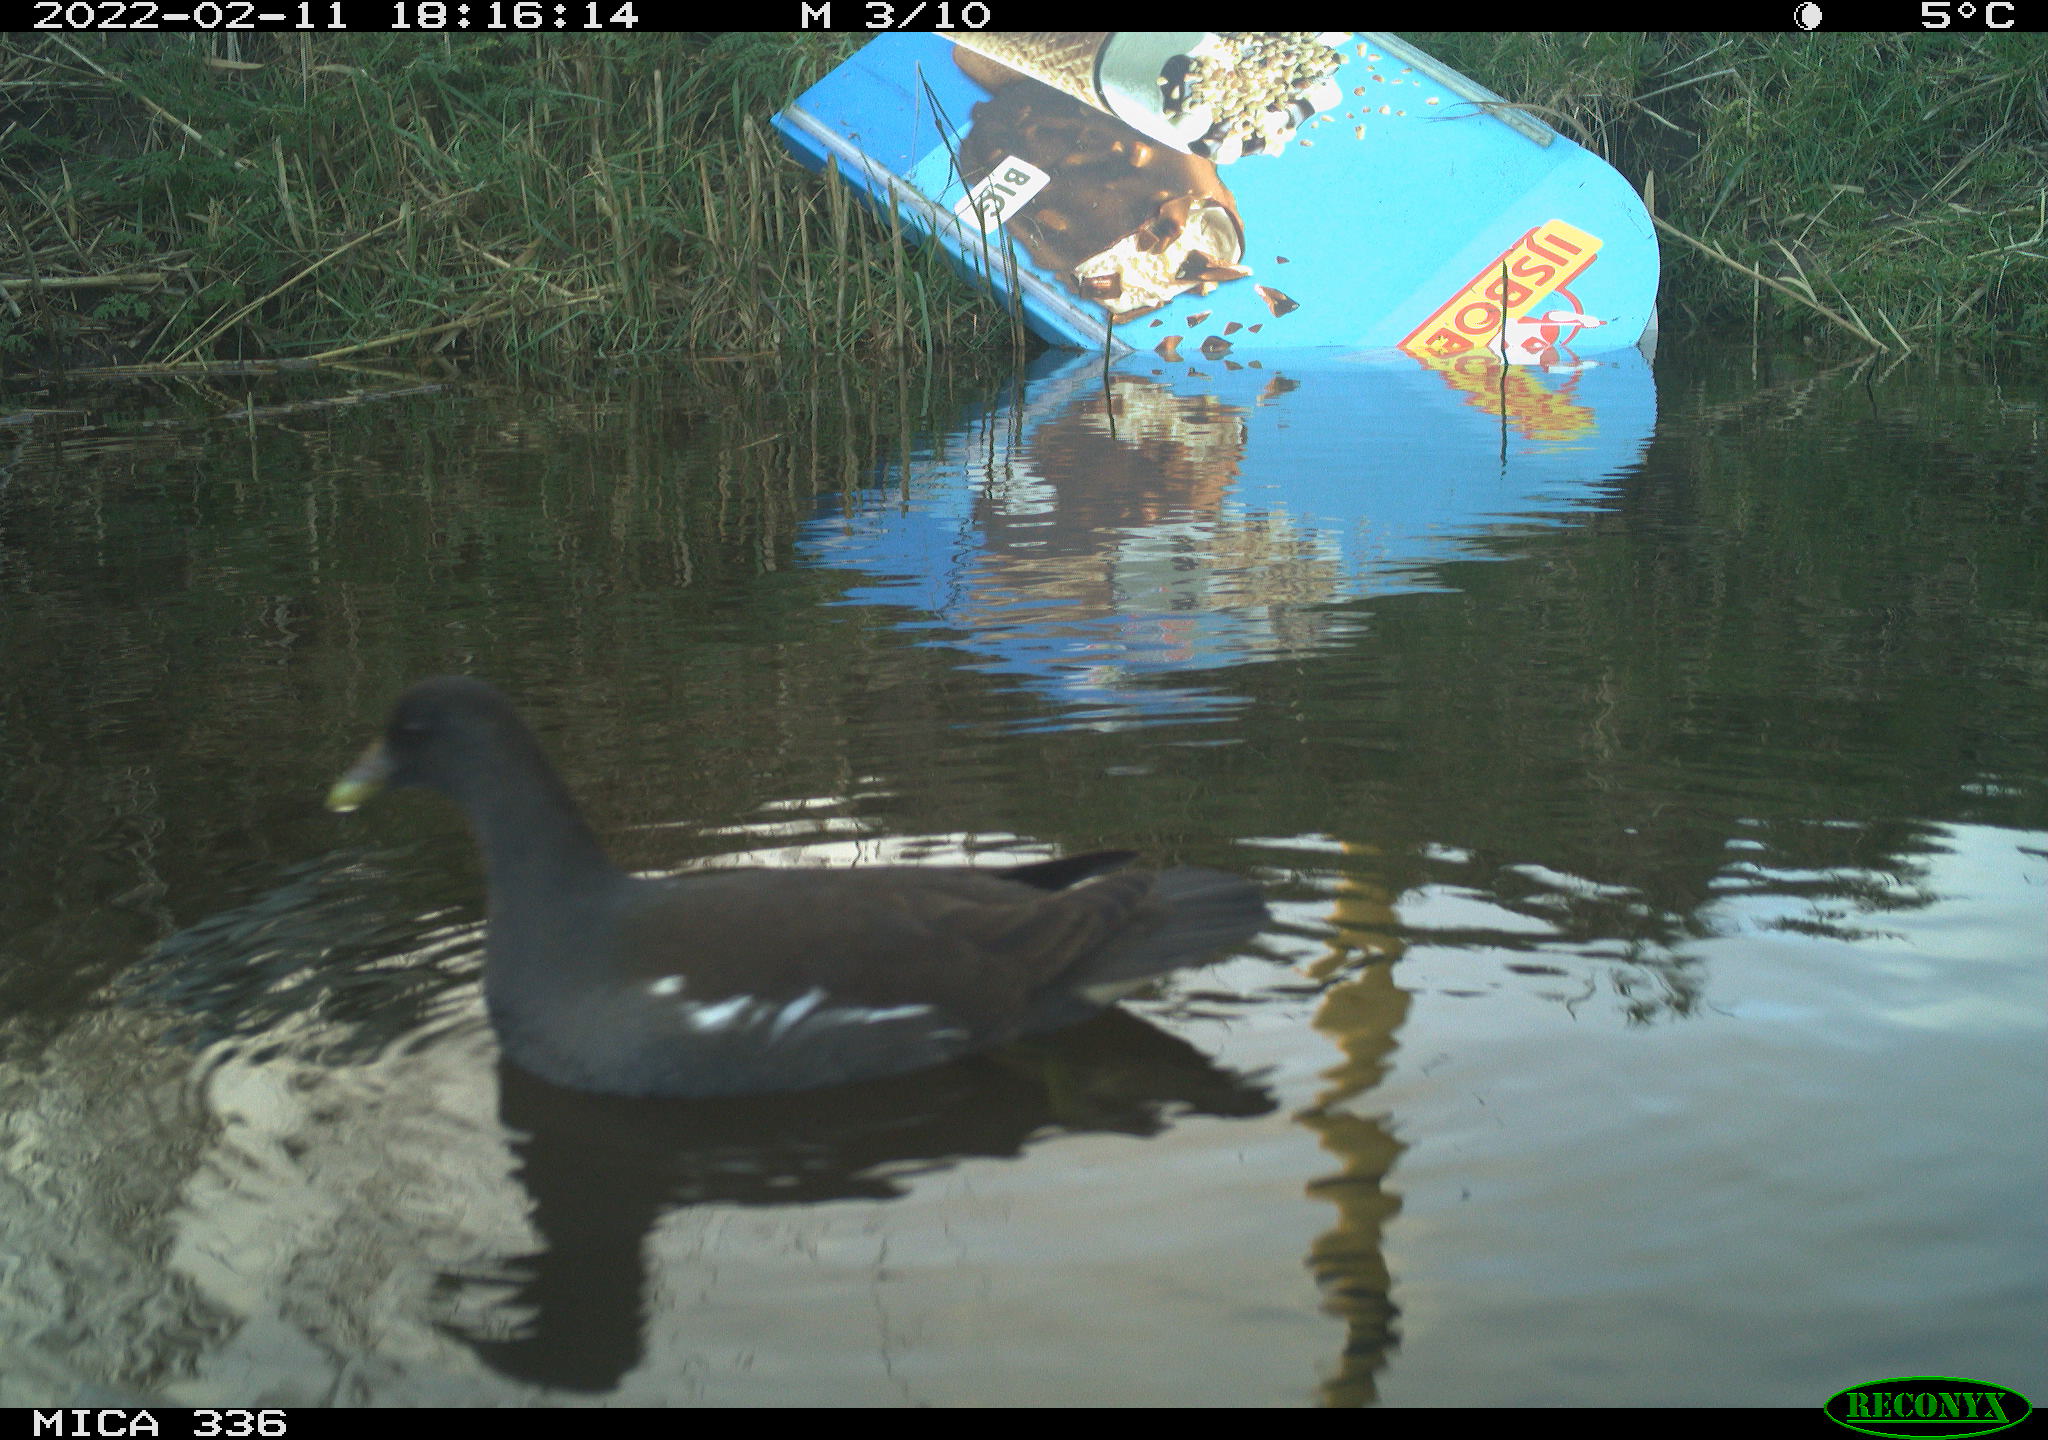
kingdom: Animalia
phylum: Chordata
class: Aves
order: Gruiformes
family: Rallidae
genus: Gallinula
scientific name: Gallinula chloropus
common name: Common moorhen
